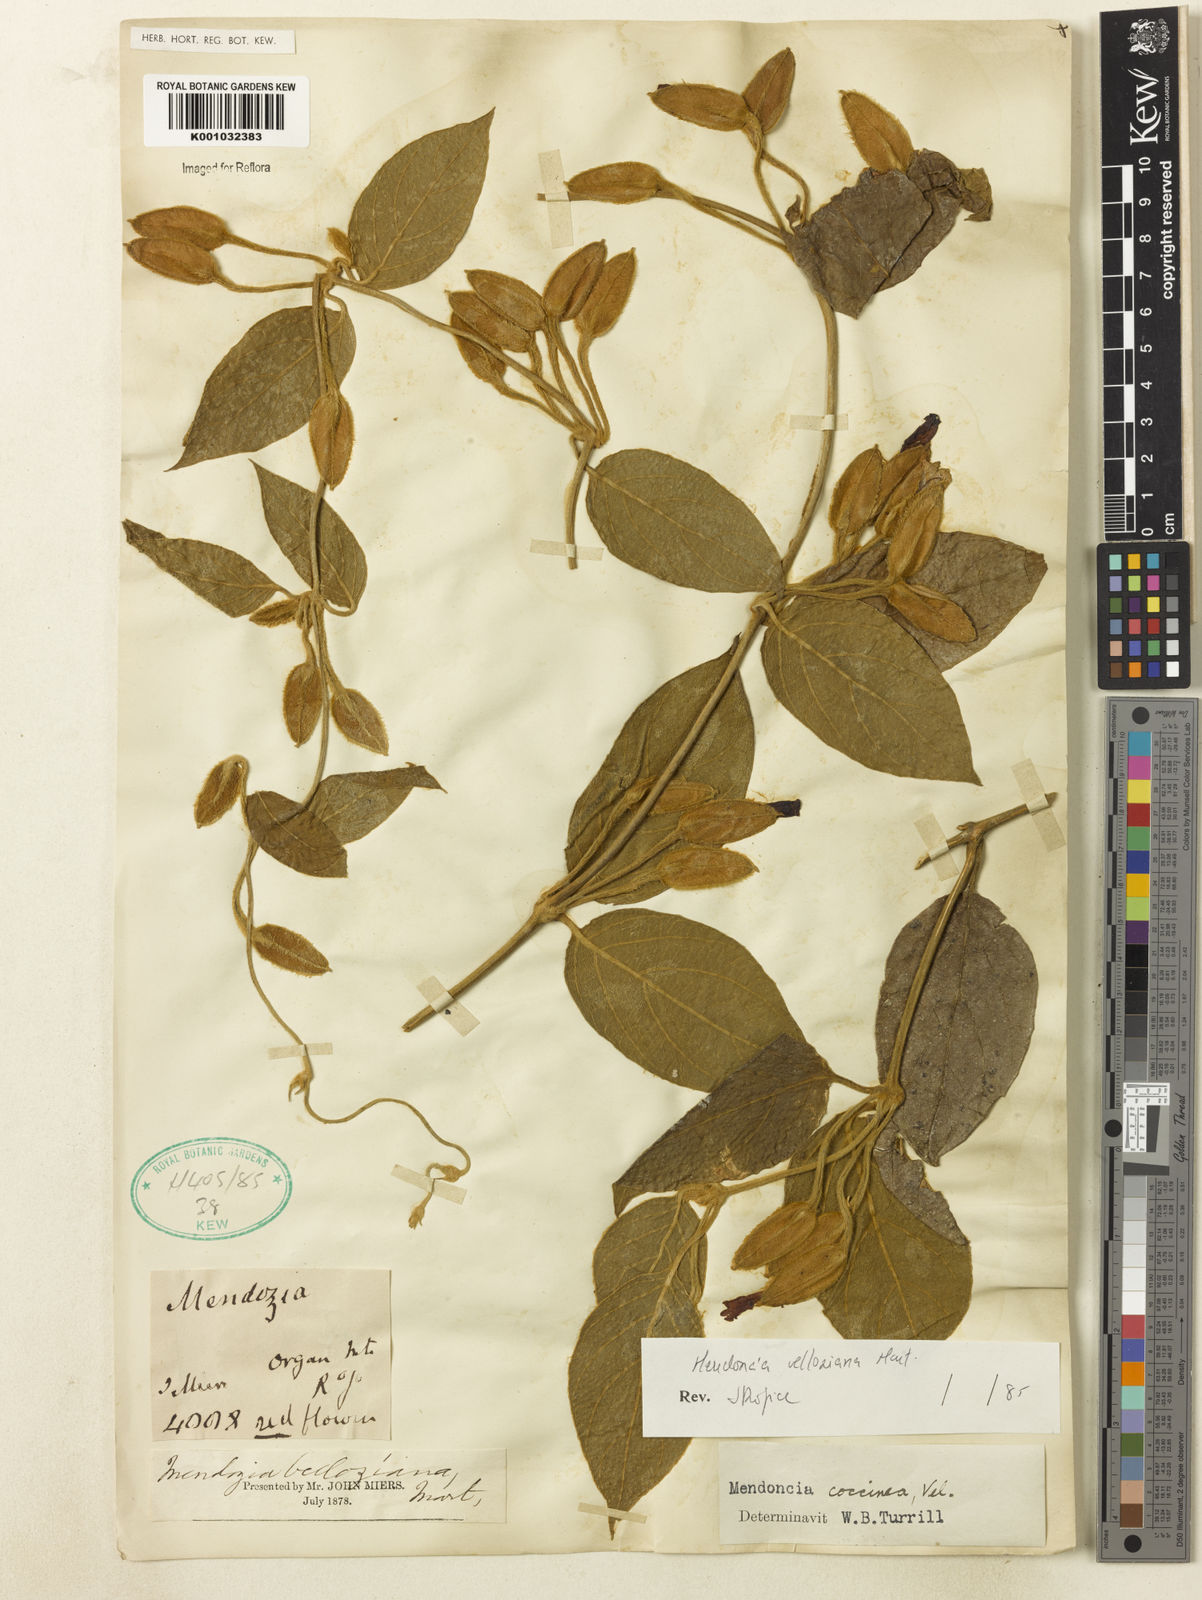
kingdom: Plantae
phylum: Tracheophyta
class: Magnoliopsida
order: Lamiales
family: Acanthaceae
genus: Mendoncia
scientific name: Mendoncia velloziana
